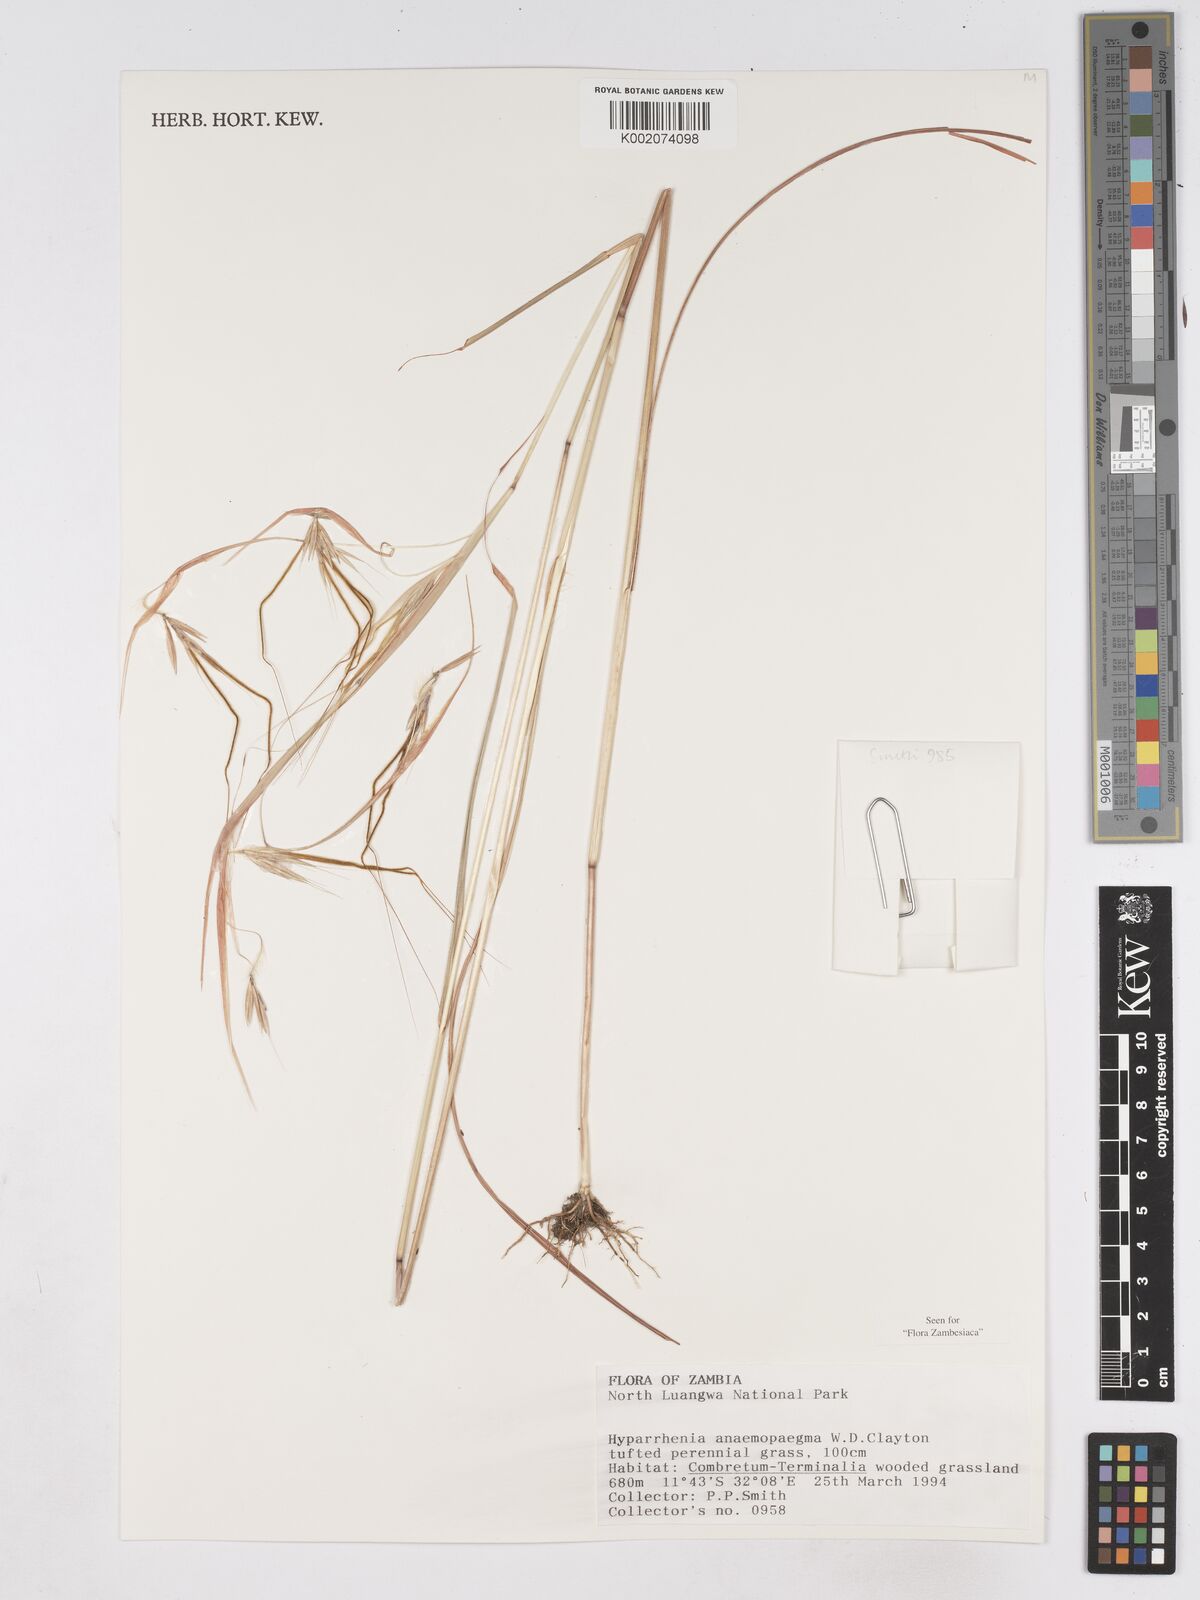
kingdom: Plantae
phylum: Tracheophyta
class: Liliopsida
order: Poales
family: Poaceae
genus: Hyparrhenia
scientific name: Hyparrhenia anemopaegma
